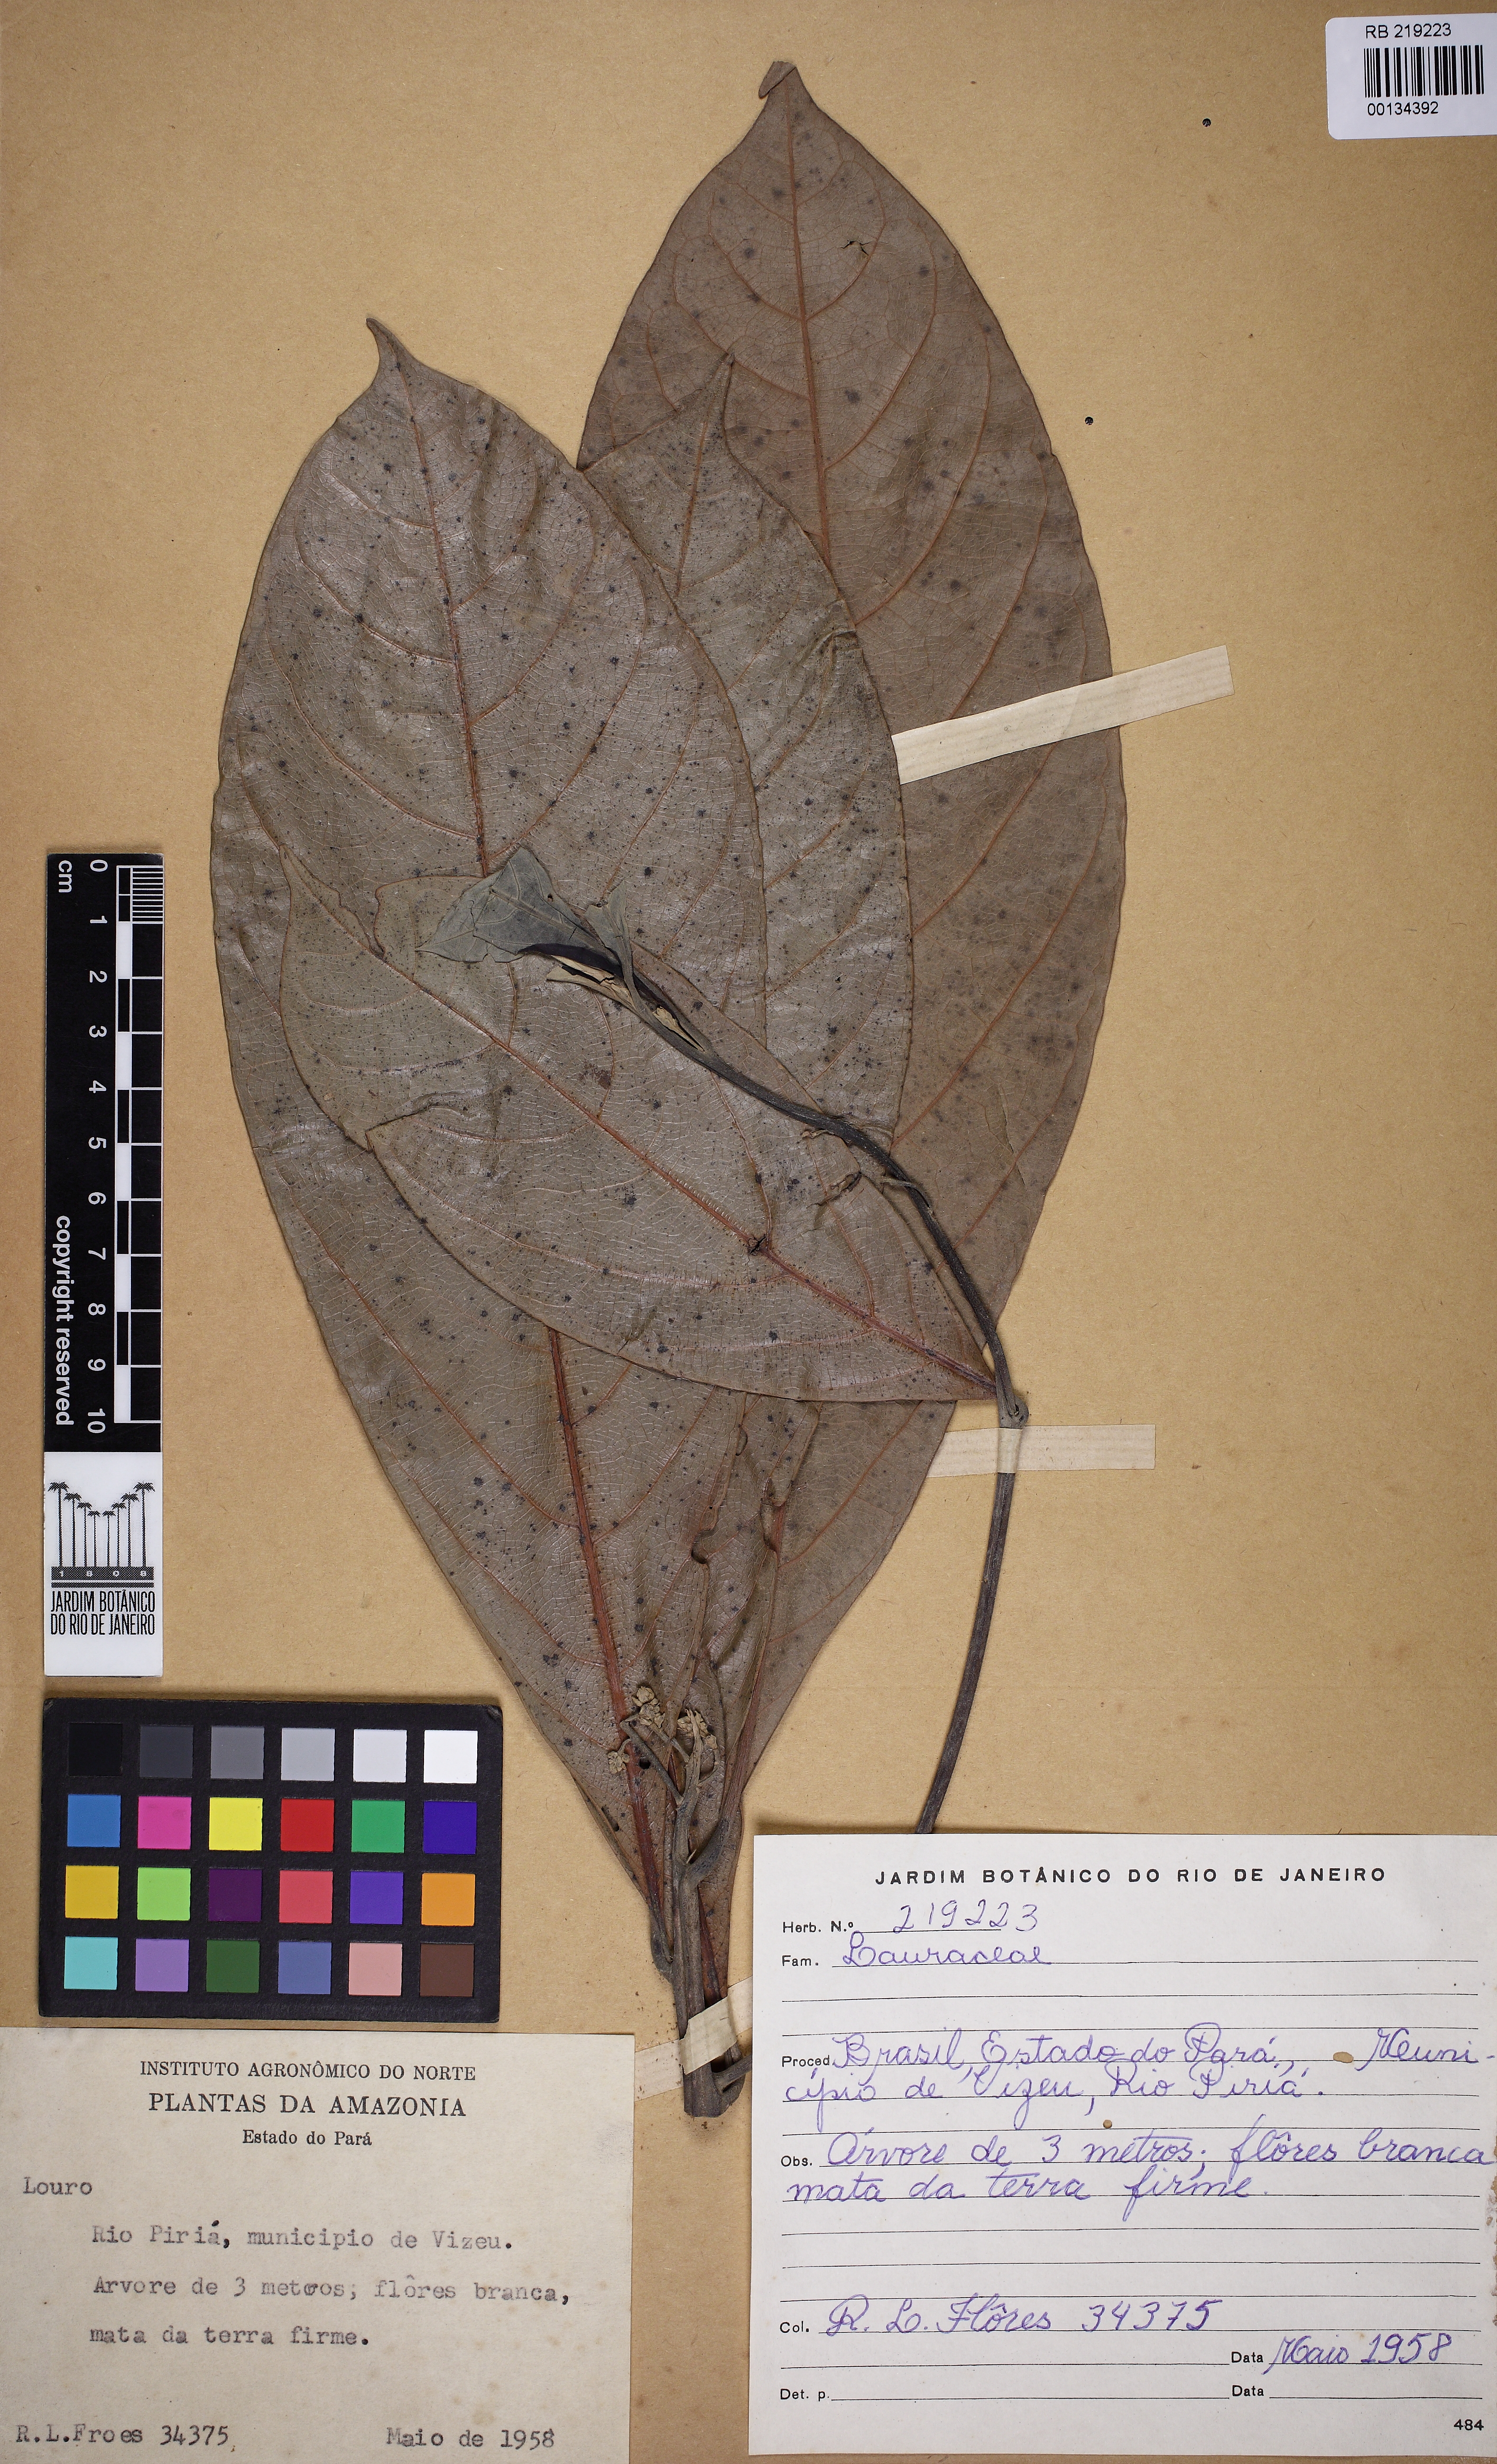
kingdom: Plantae
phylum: Tracheophyta
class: Magnoliopsida
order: Laurales
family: Lauraceae
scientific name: Lauraceae
